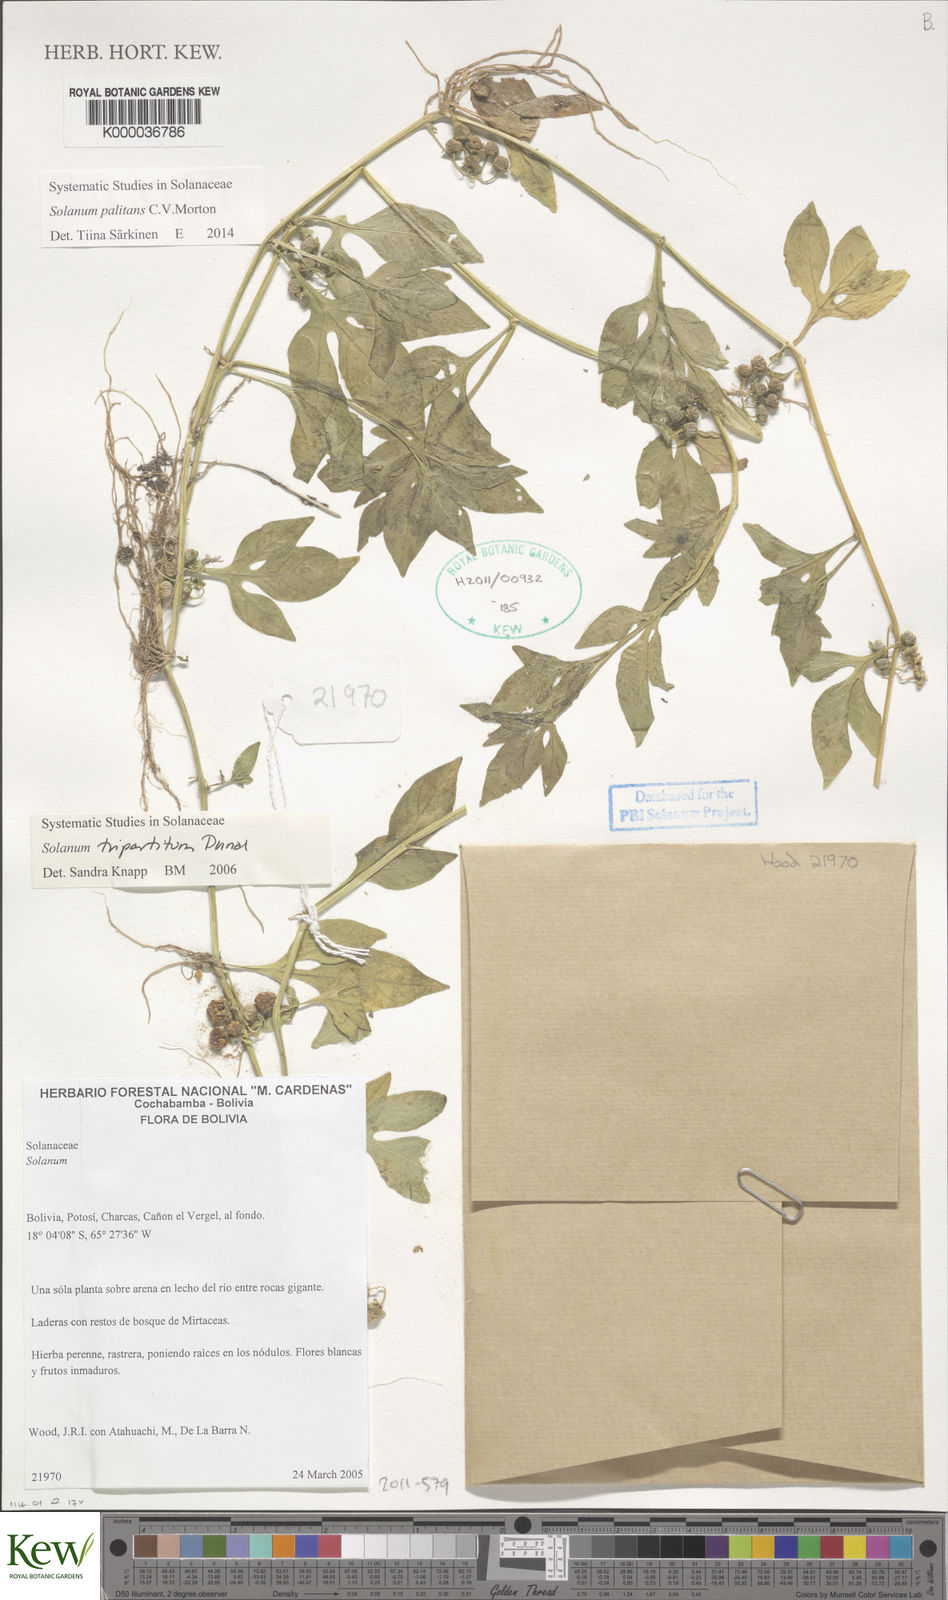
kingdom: Plantae
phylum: Tracheophyta
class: Magnoliopsida
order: Solanales
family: Solanaceae
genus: Solanum
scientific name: Solanum tripartitum
